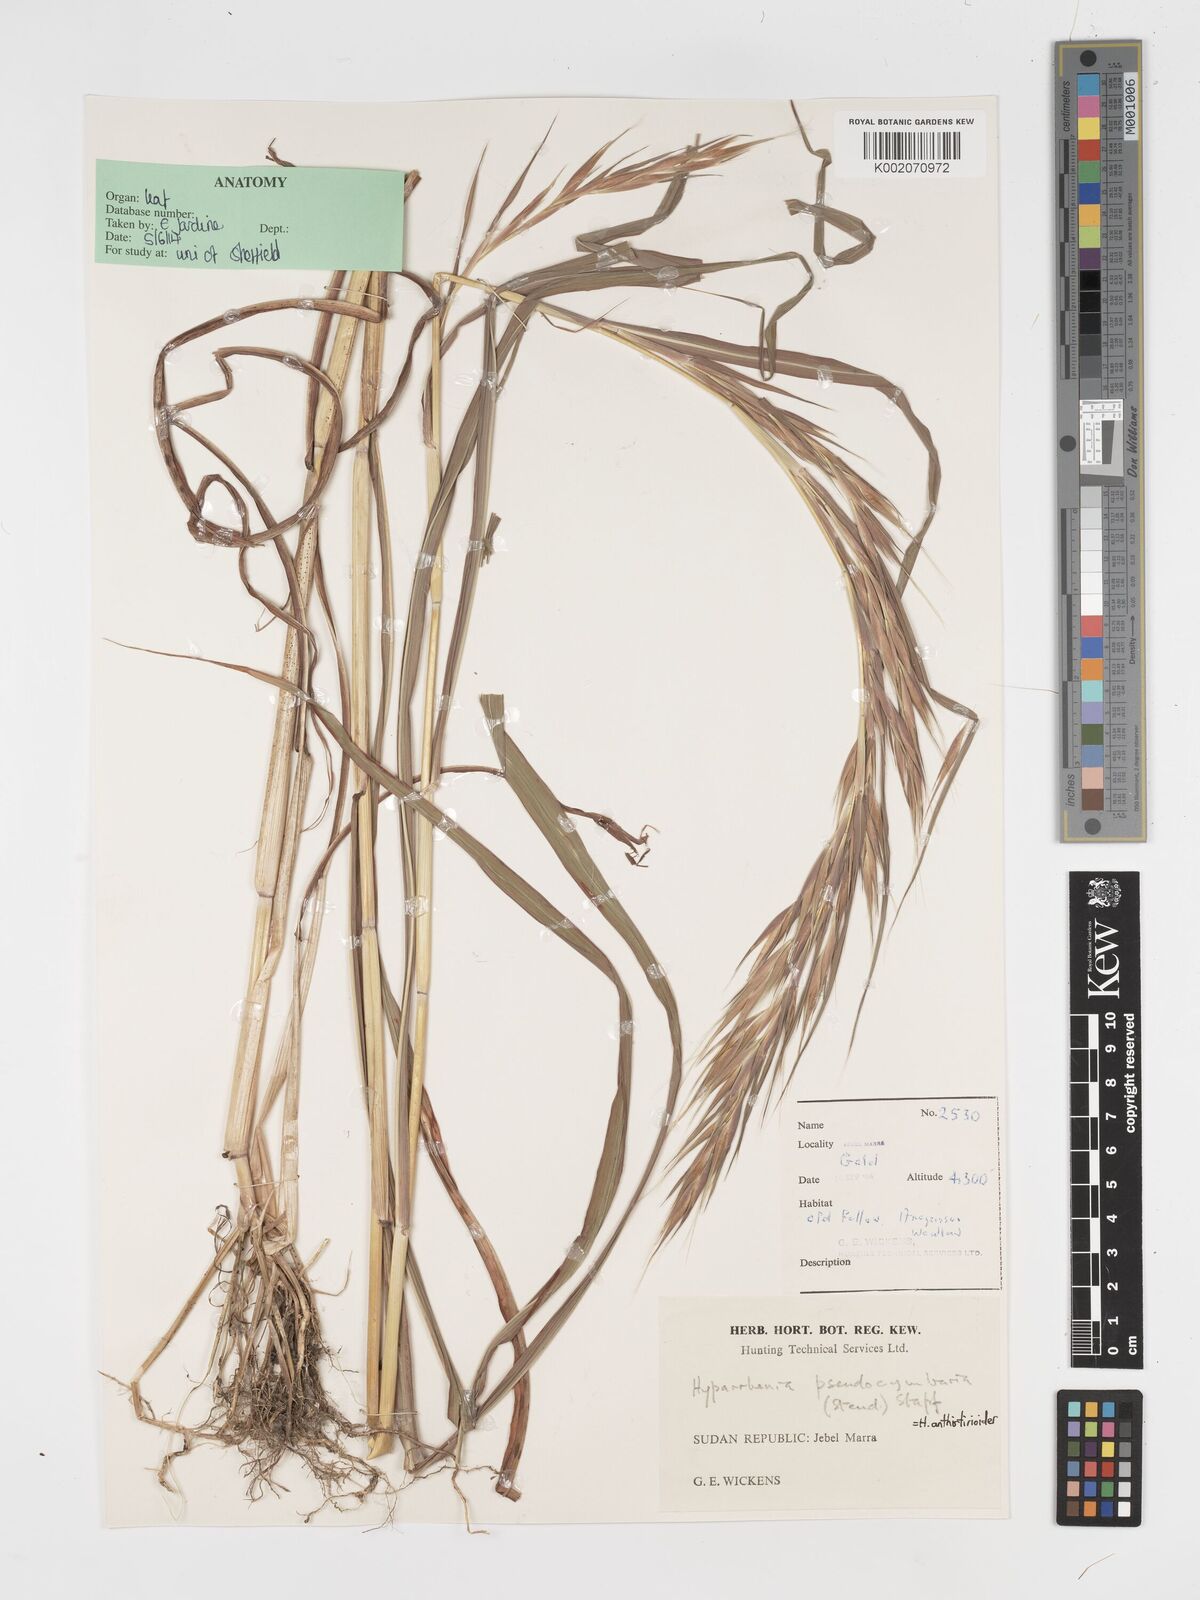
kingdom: Plantae
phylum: Tracheophyta
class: Liliopsida
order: Poales
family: Poaceae
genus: Hyparrhenia
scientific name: Hyparrhenia anthistirioides
